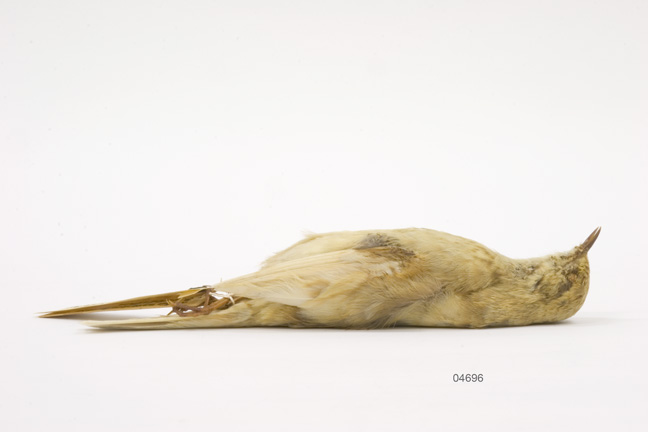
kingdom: Animalia
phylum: Chordata
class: Aves
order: Passeriformes
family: Motacillidae
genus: Anthus
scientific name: Anthus novaeseelandiae
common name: New zealand pipit
